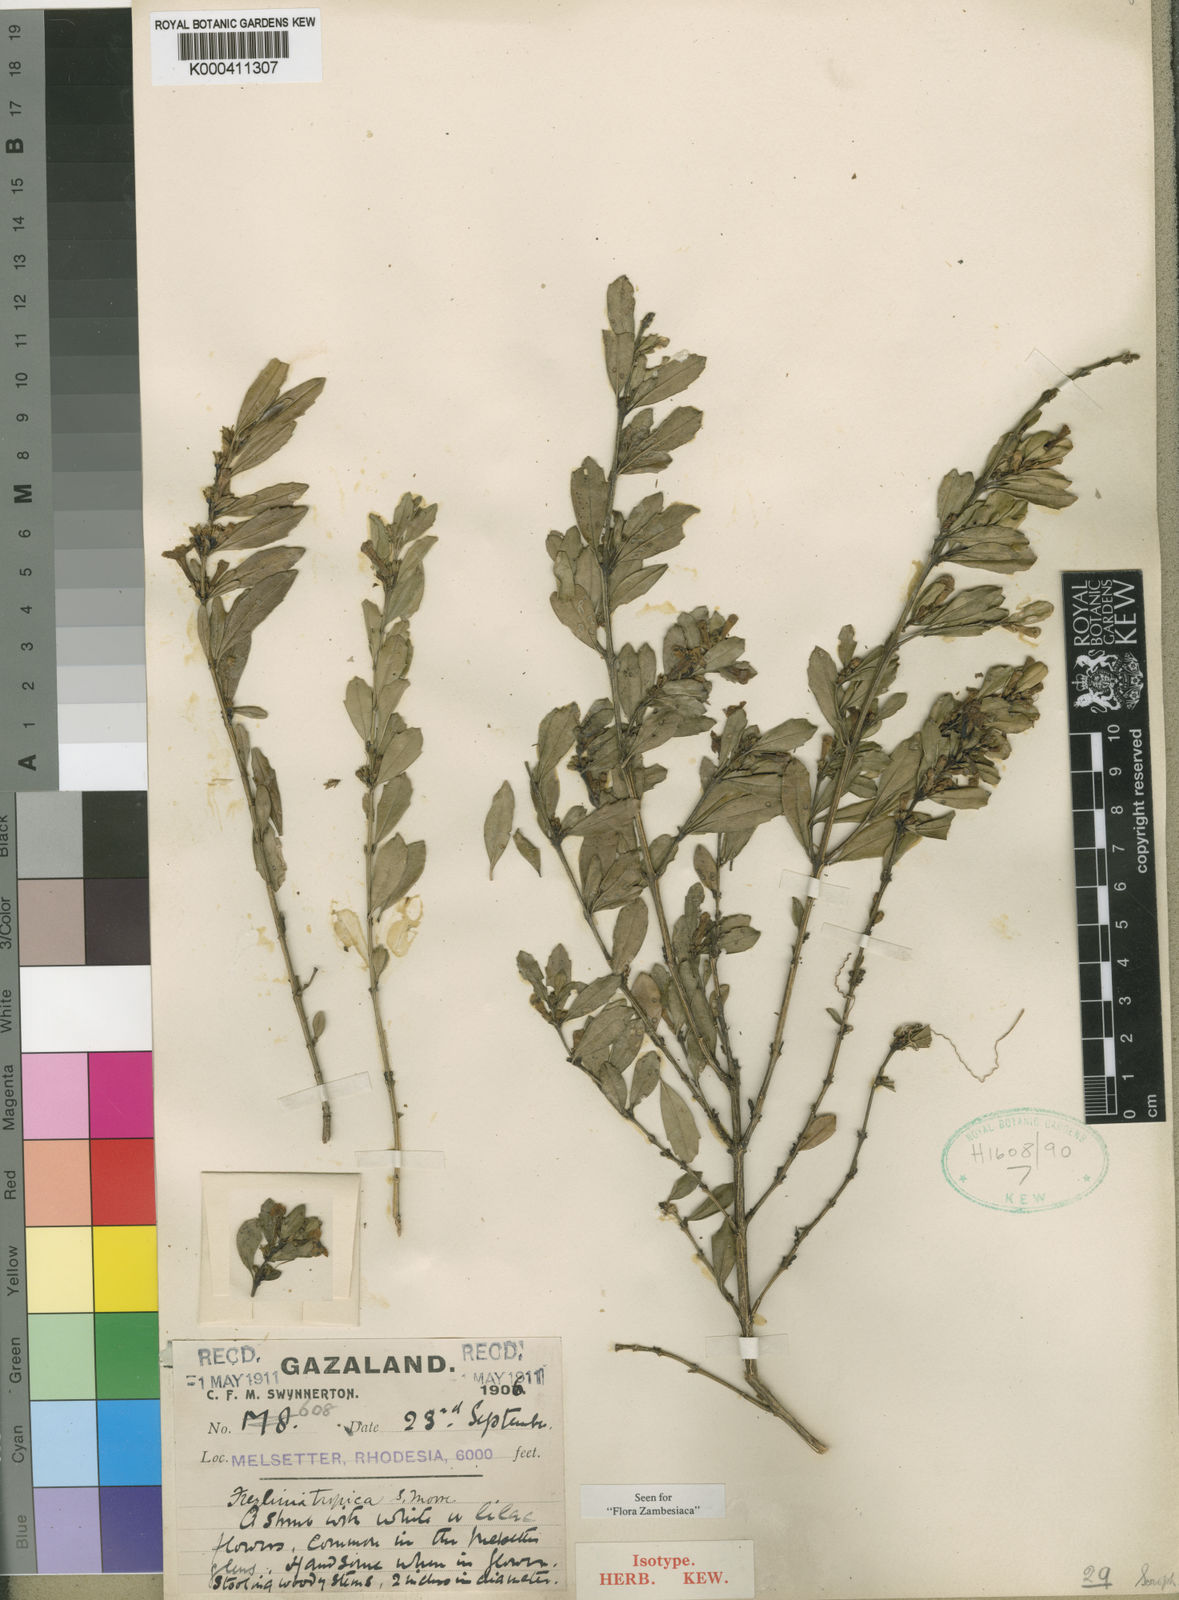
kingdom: Plantae
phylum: Tracheophyta
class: Magnoliopsida
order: Lamiales
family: Scrophulariaceae
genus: Freylinia
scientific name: Freylinia tropica
